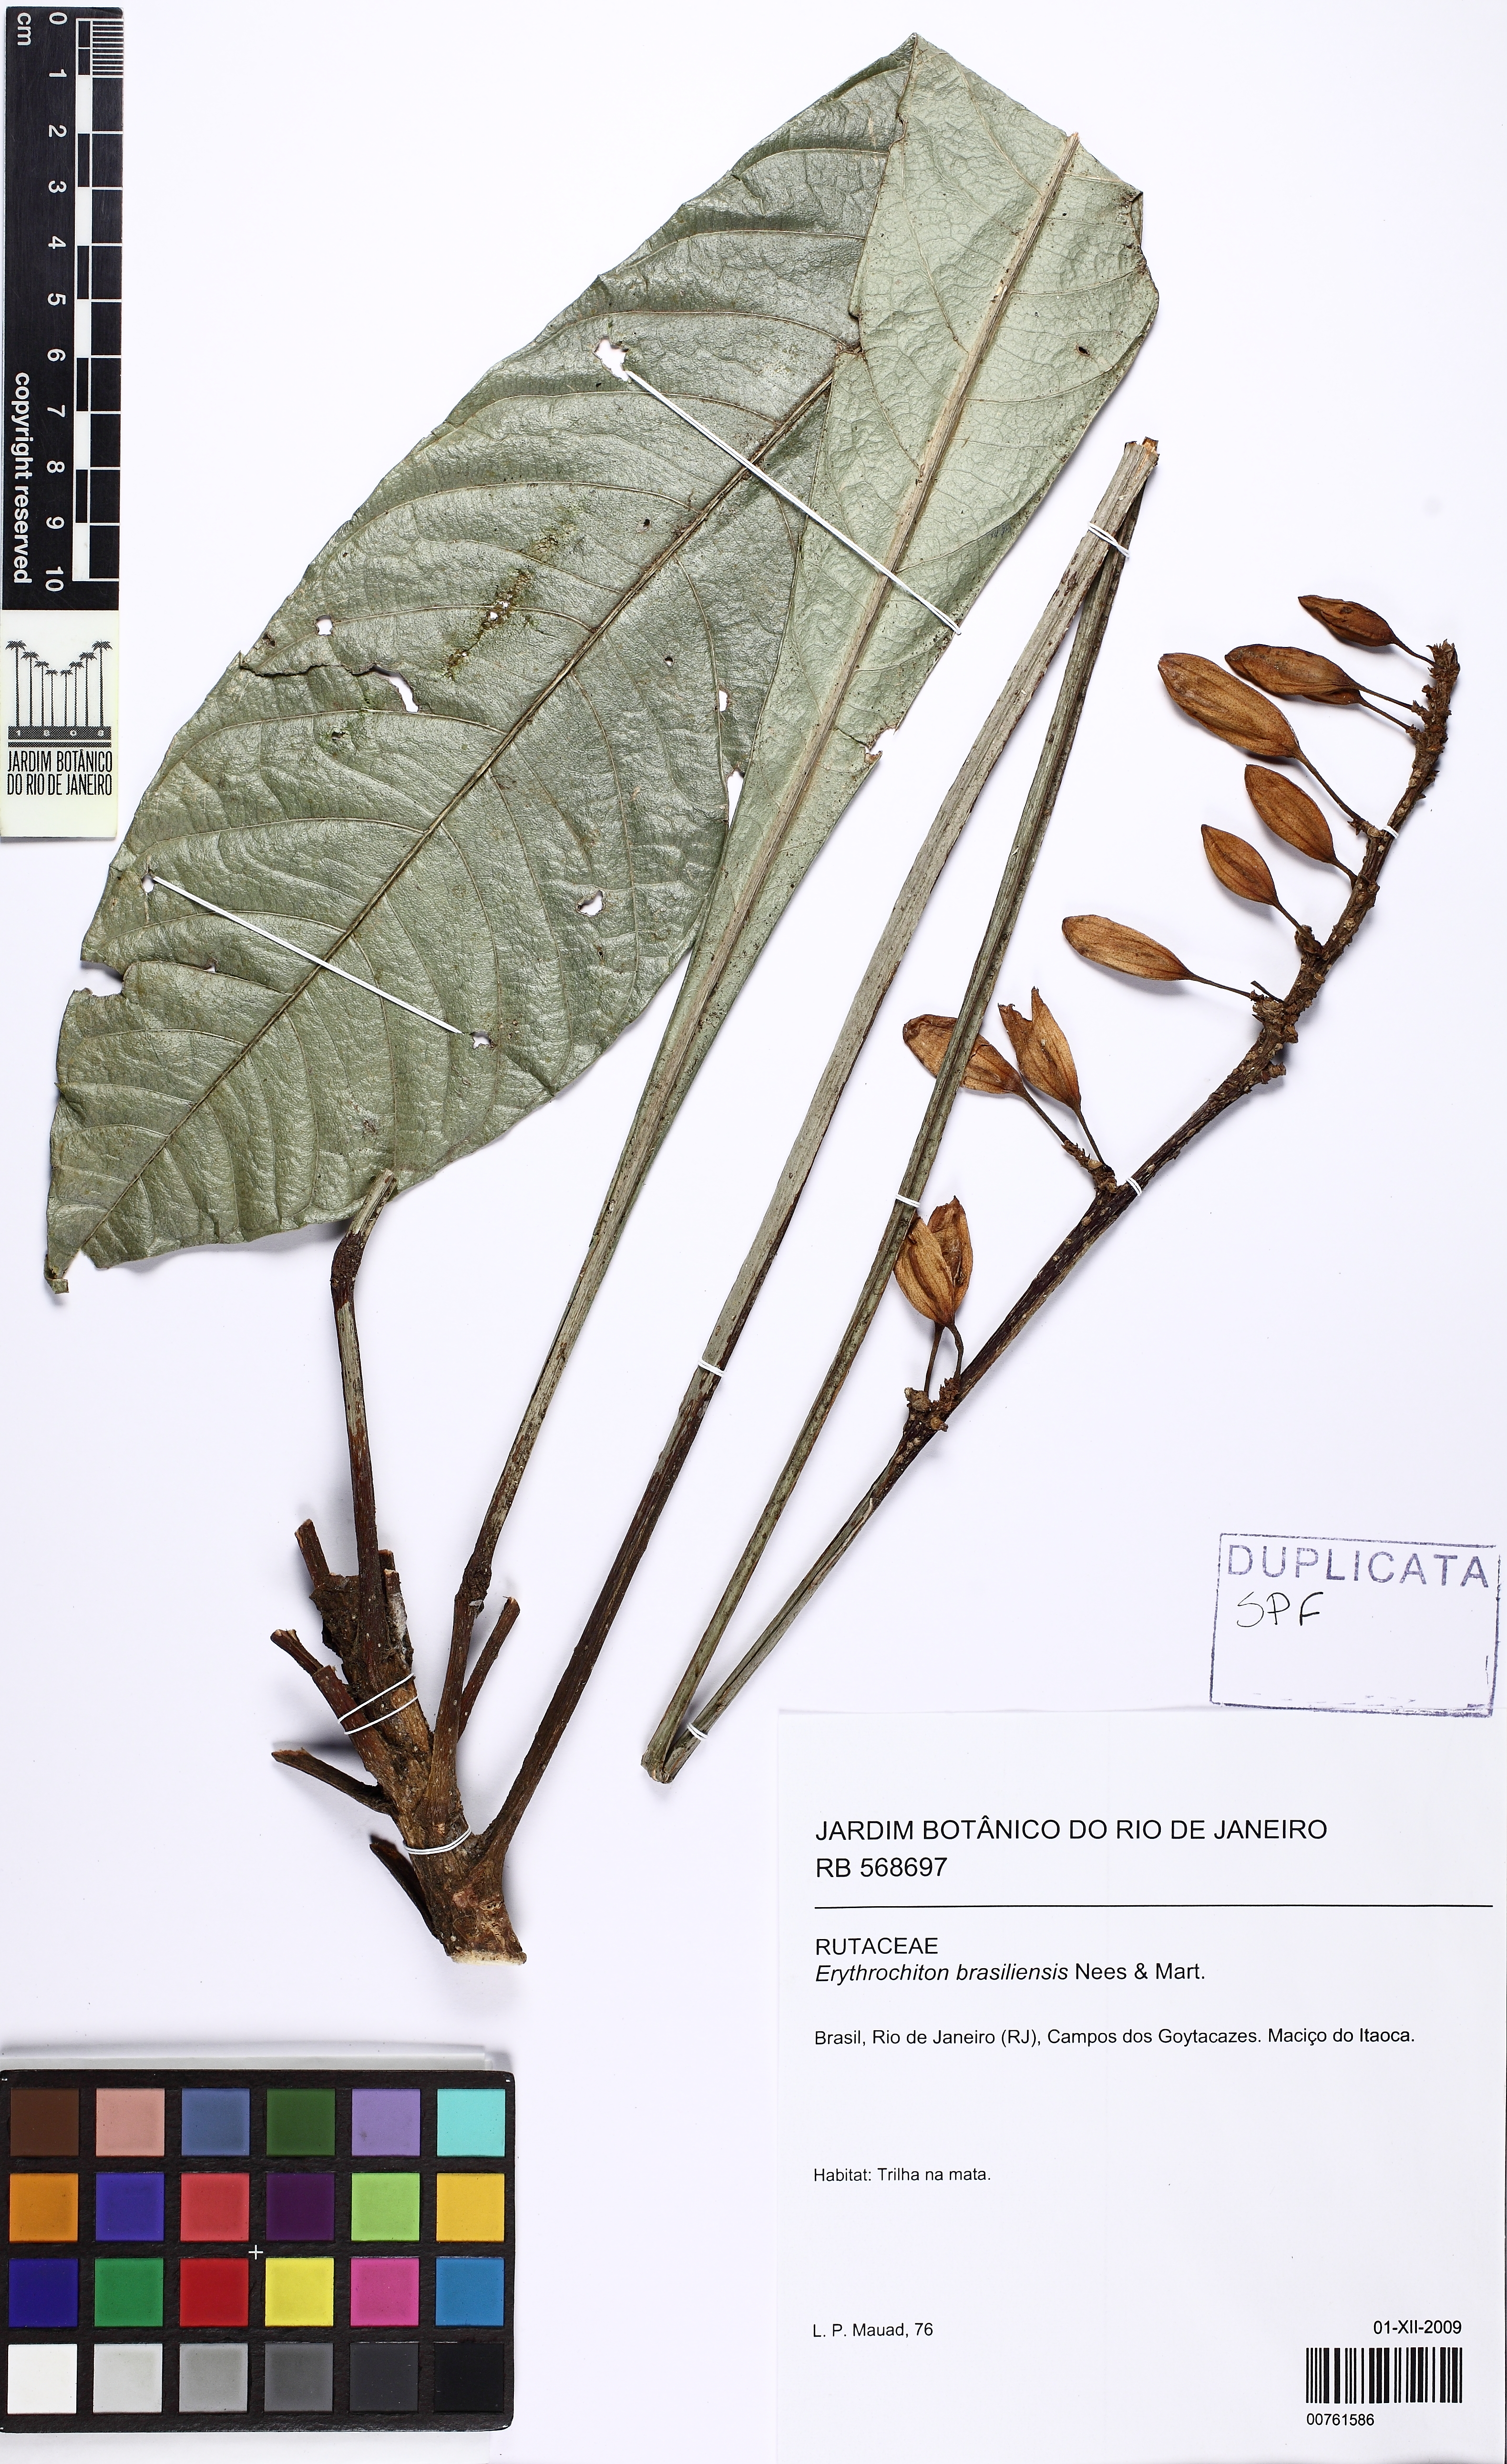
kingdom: Plantae
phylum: Tracheophyta
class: Magnoliopsida
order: Sapindales
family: Rutaceae
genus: Erythrochiton
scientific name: Erythrochiton brasiliensis
